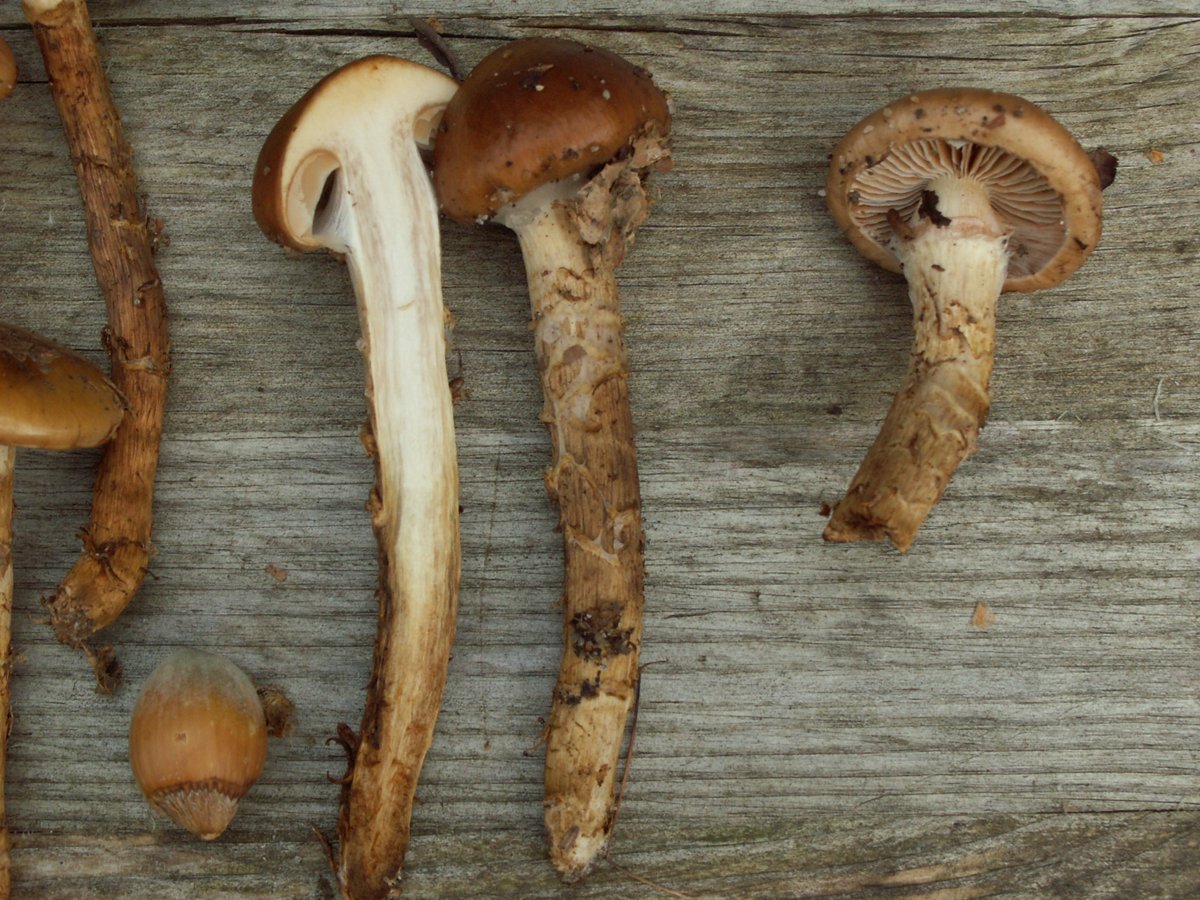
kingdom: Fungi
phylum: Basidiomycota
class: Agaricomycetes
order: Agaricales
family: Cortinariaceae
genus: Cortinarius
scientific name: Cortinarius trivialis
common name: brunslimet slørhat
